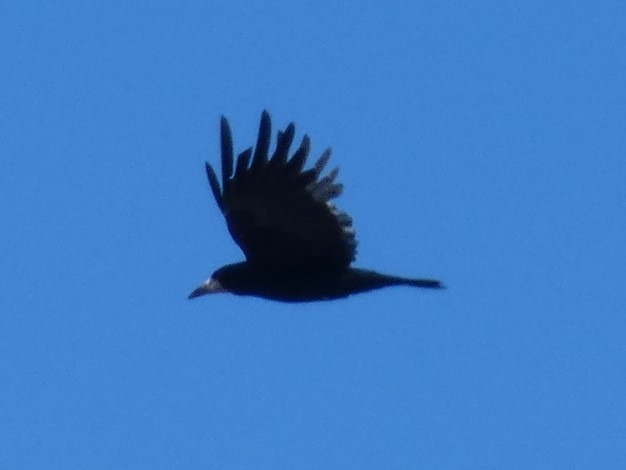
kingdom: Animalia
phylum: Chordata
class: Aves
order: Passeriformes
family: Corvidae
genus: Corvus
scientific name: Corvus frugilegus
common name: Råge
